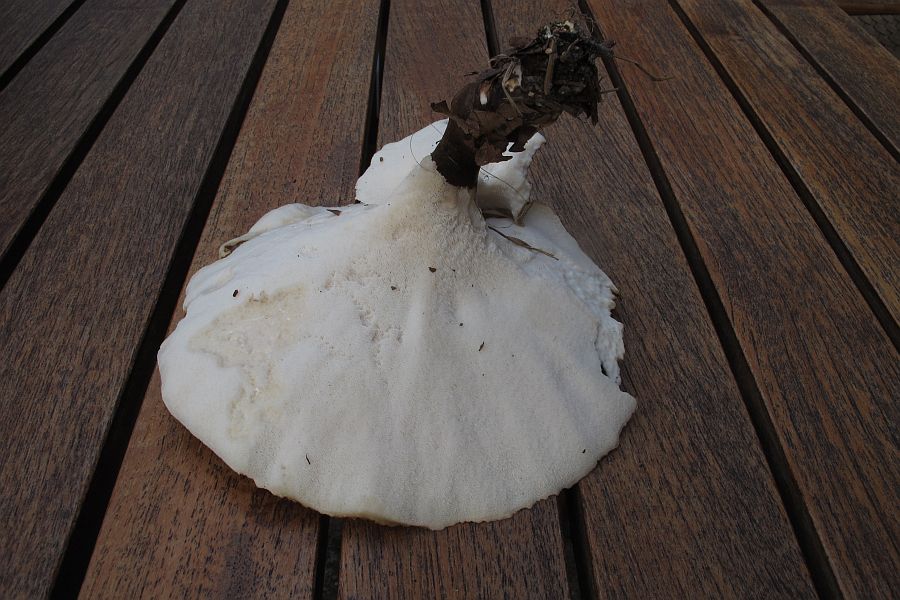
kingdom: Fungi
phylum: Basidiomycota
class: Agaricomycetes
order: Polyporales
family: Polyporaceae
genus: Cerioporus
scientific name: Cerioporus varius
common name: foranderlig stilkporesvamp
